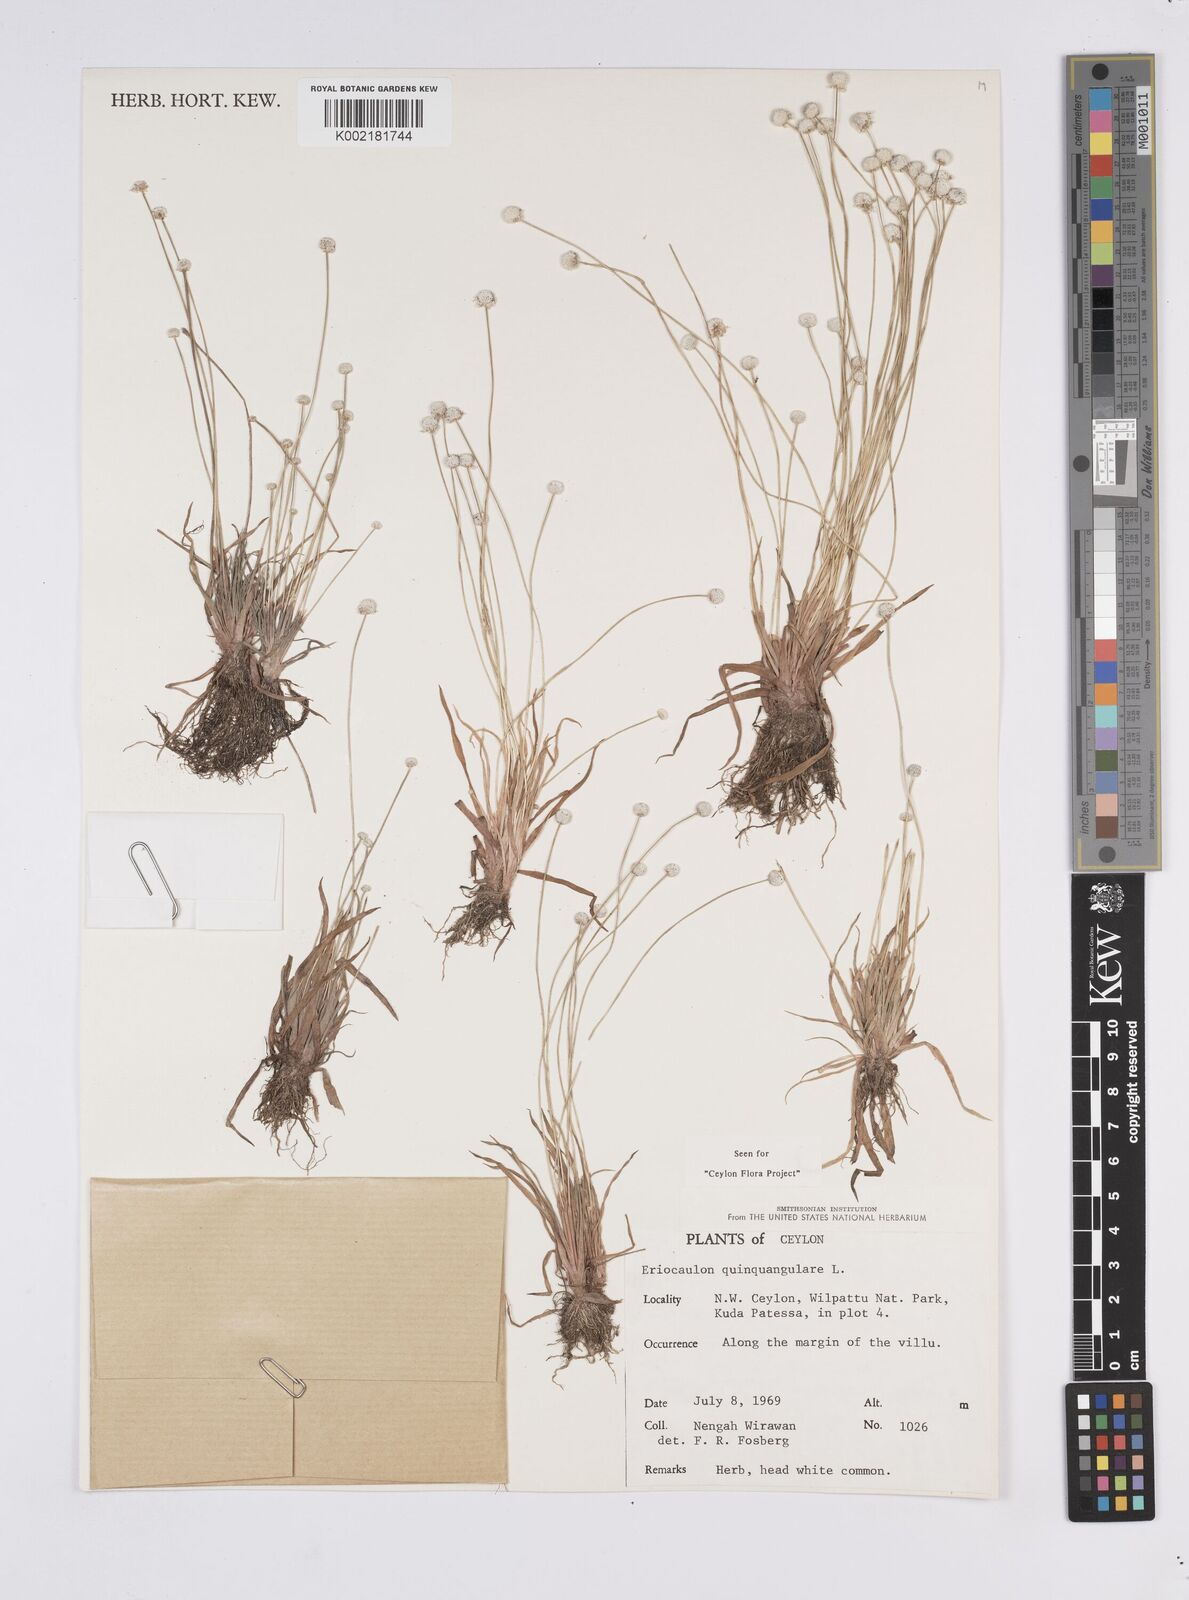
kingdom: Plantae
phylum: Tracheophyta
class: Liliopsida
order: Poales
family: Eriocaulaceae
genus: Eriocaulon
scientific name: Eriocaulon quinquangulare
